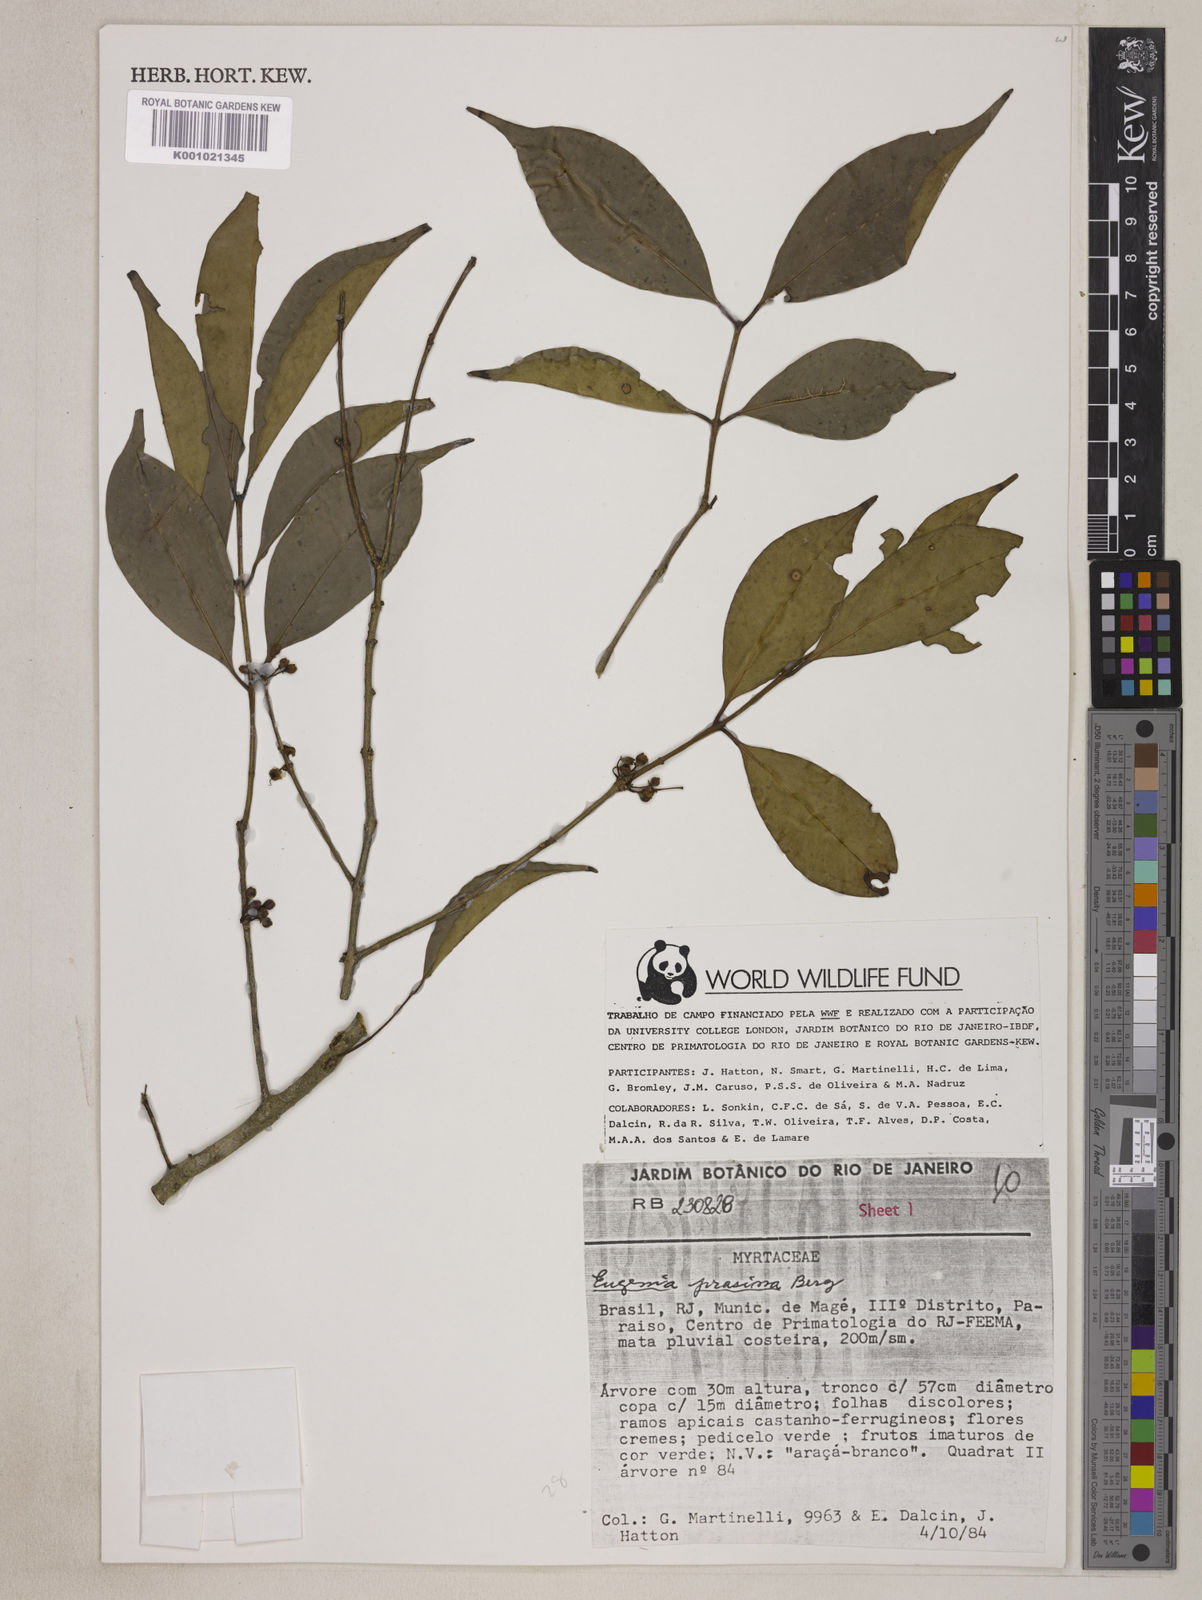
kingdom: Plantae
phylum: Tracheophyta
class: Magnoliopsida
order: Myrtales
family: Myrtaceae
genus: Eugenia
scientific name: Eugenia prasina
